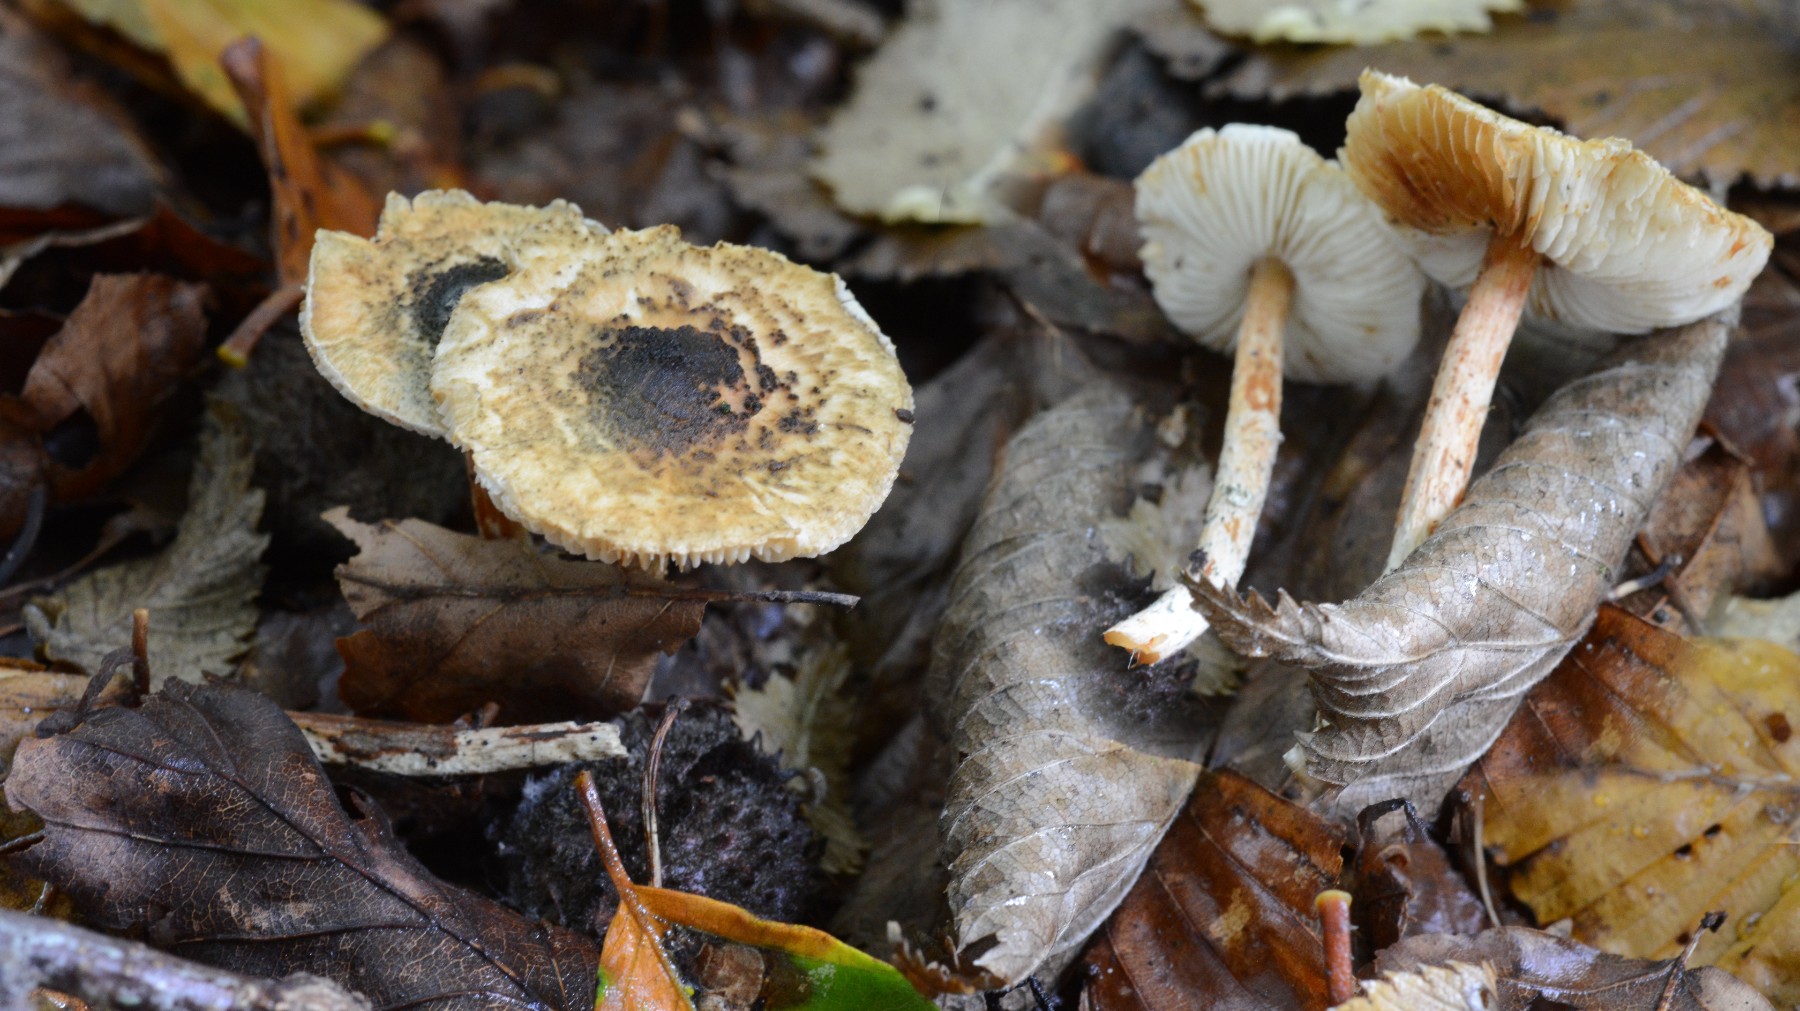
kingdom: Fungi
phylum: Basidiomycota
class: Agaricomycetes
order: Agaricales
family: Agaricaceae
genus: Lepiota
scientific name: Lepiota grangei
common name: grønskællet parasolhat
